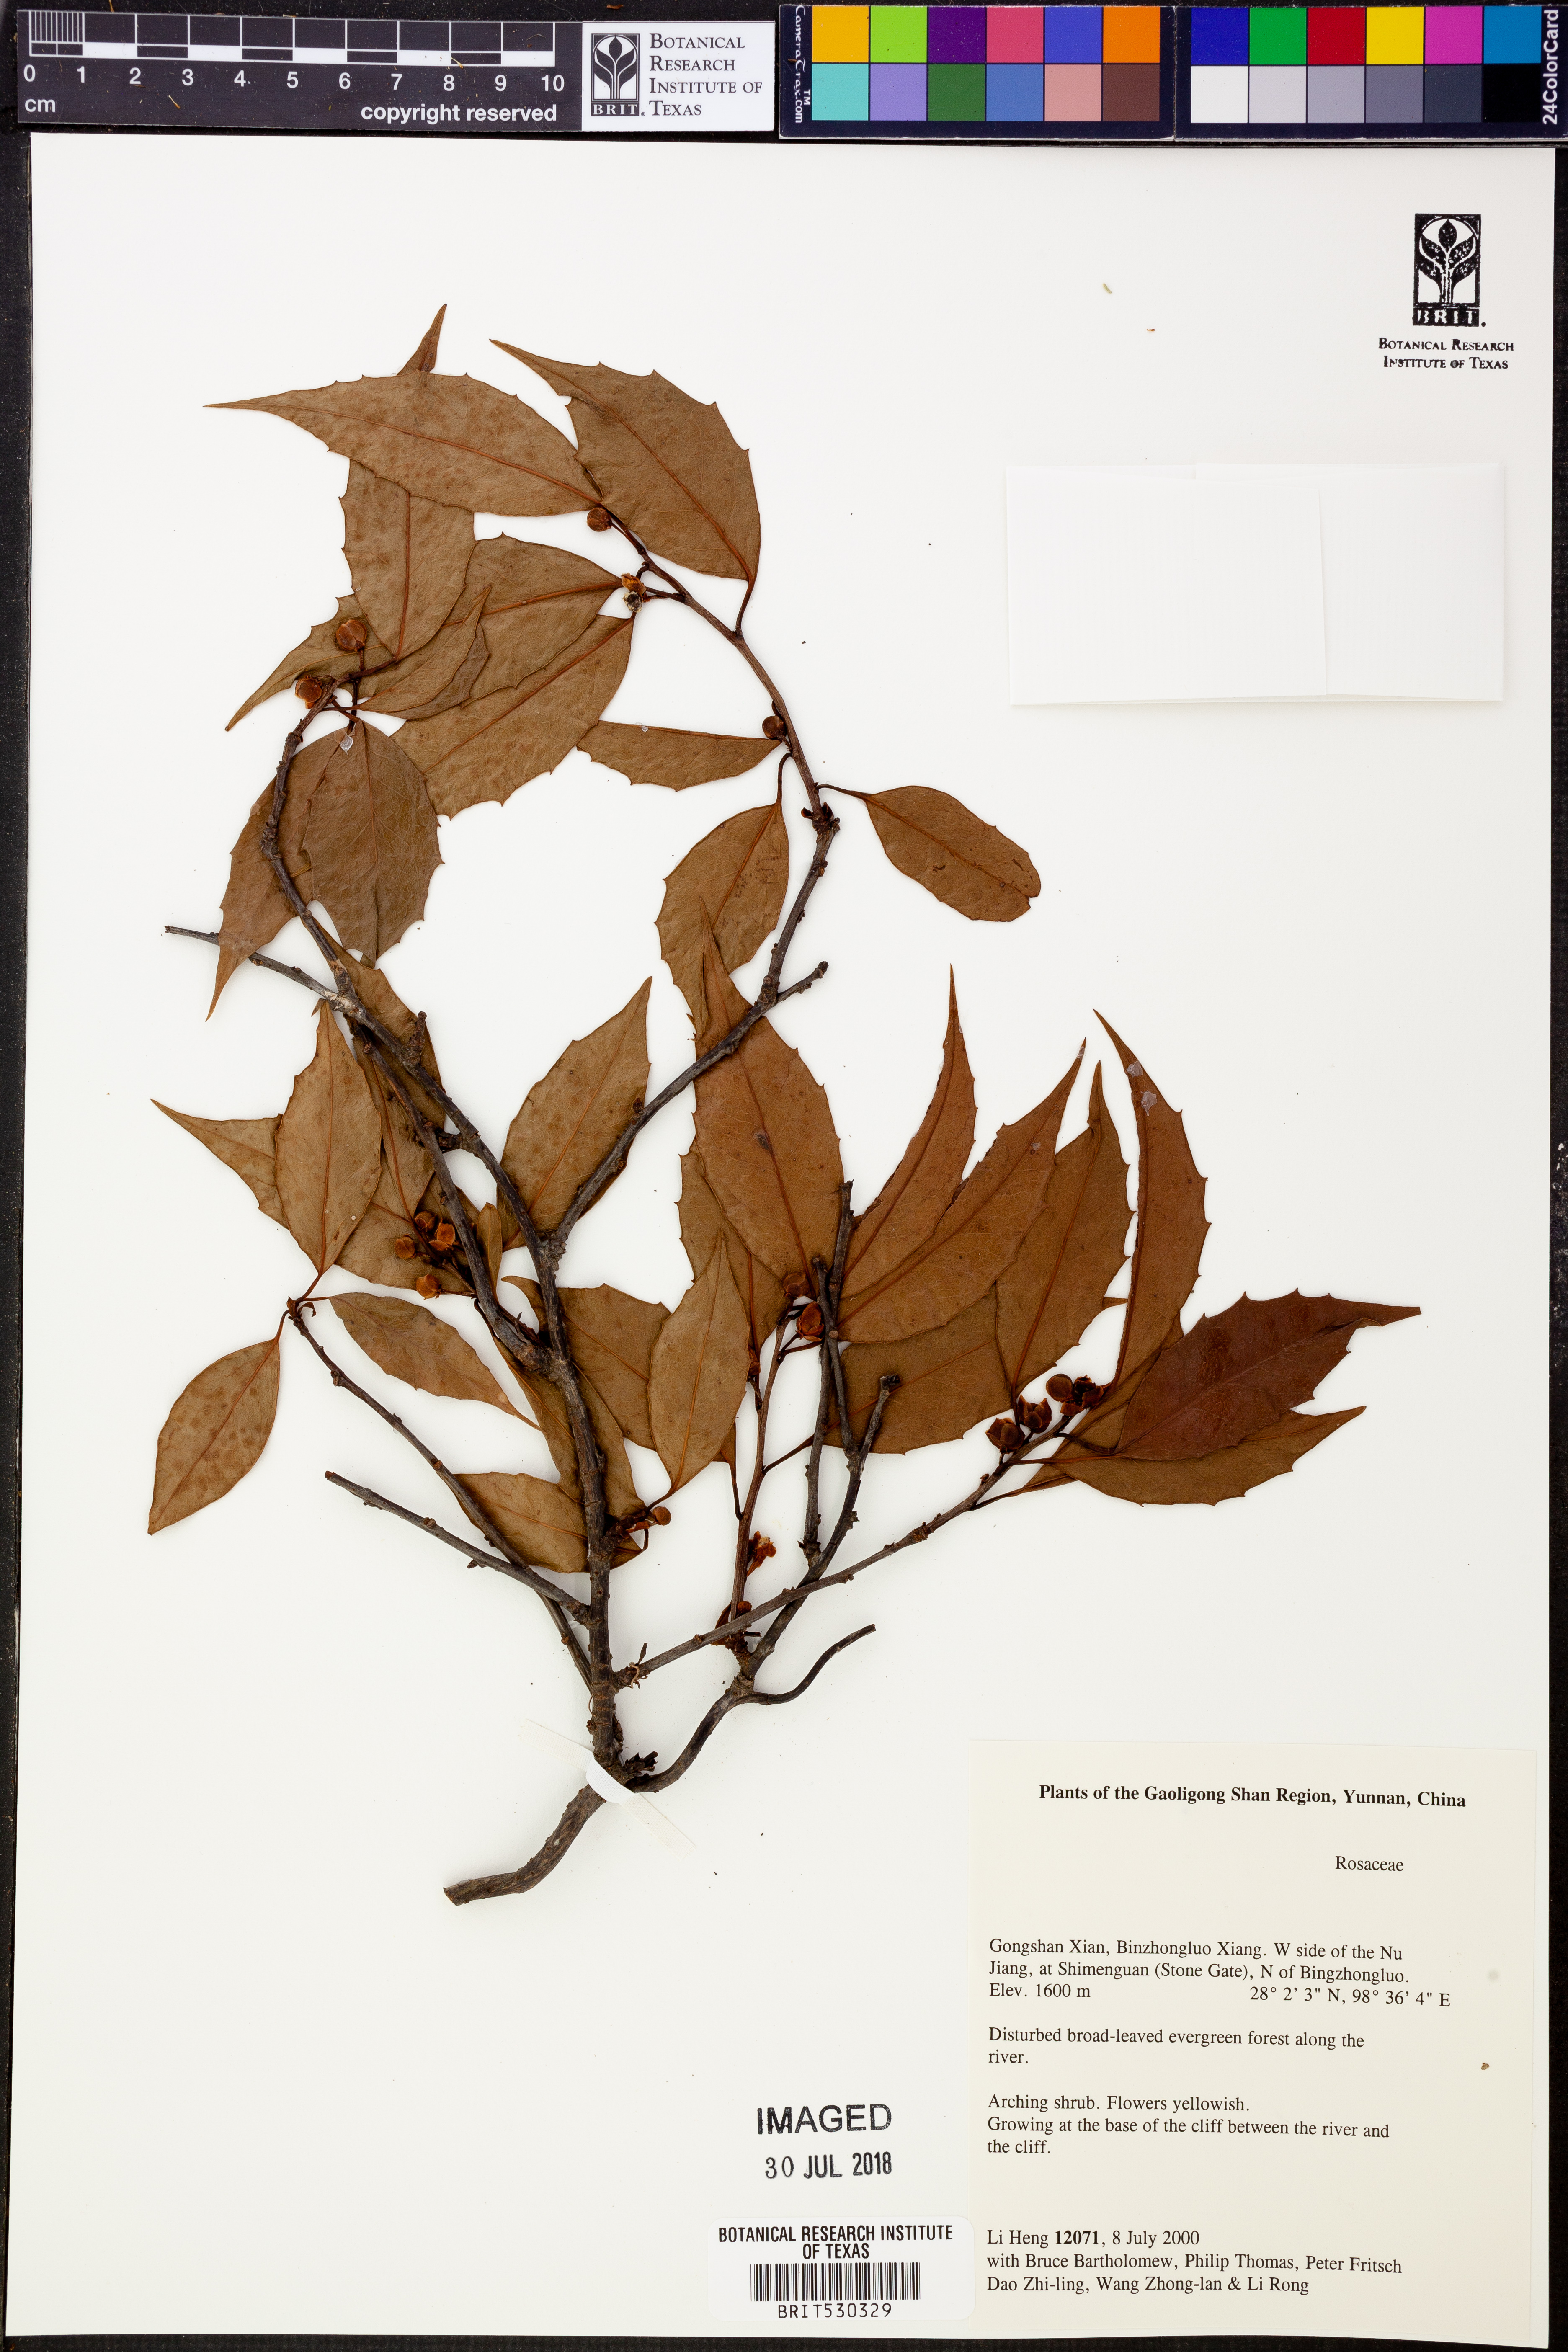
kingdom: Plantae
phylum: Tracheophyta
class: Magnoliopsida
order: Austrobaileyales
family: Schisandraceae
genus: Kadsura
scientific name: Kadsura
